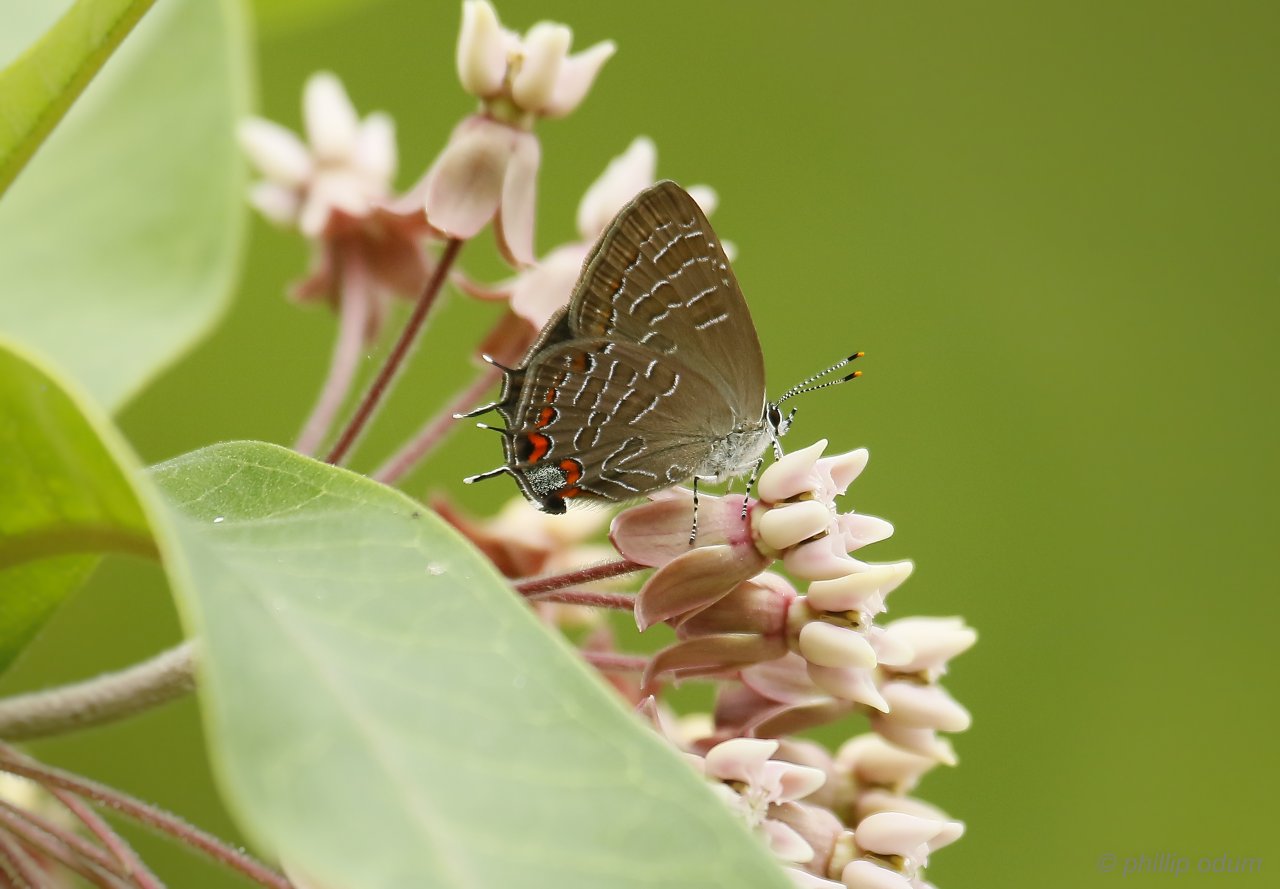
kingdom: Animalia
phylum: Arthropoda
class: Insecta
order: Lepidoptera
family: Lycaenidae
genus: Satyrium
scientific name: Satyrium liparops
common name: Striped Hairstreak
